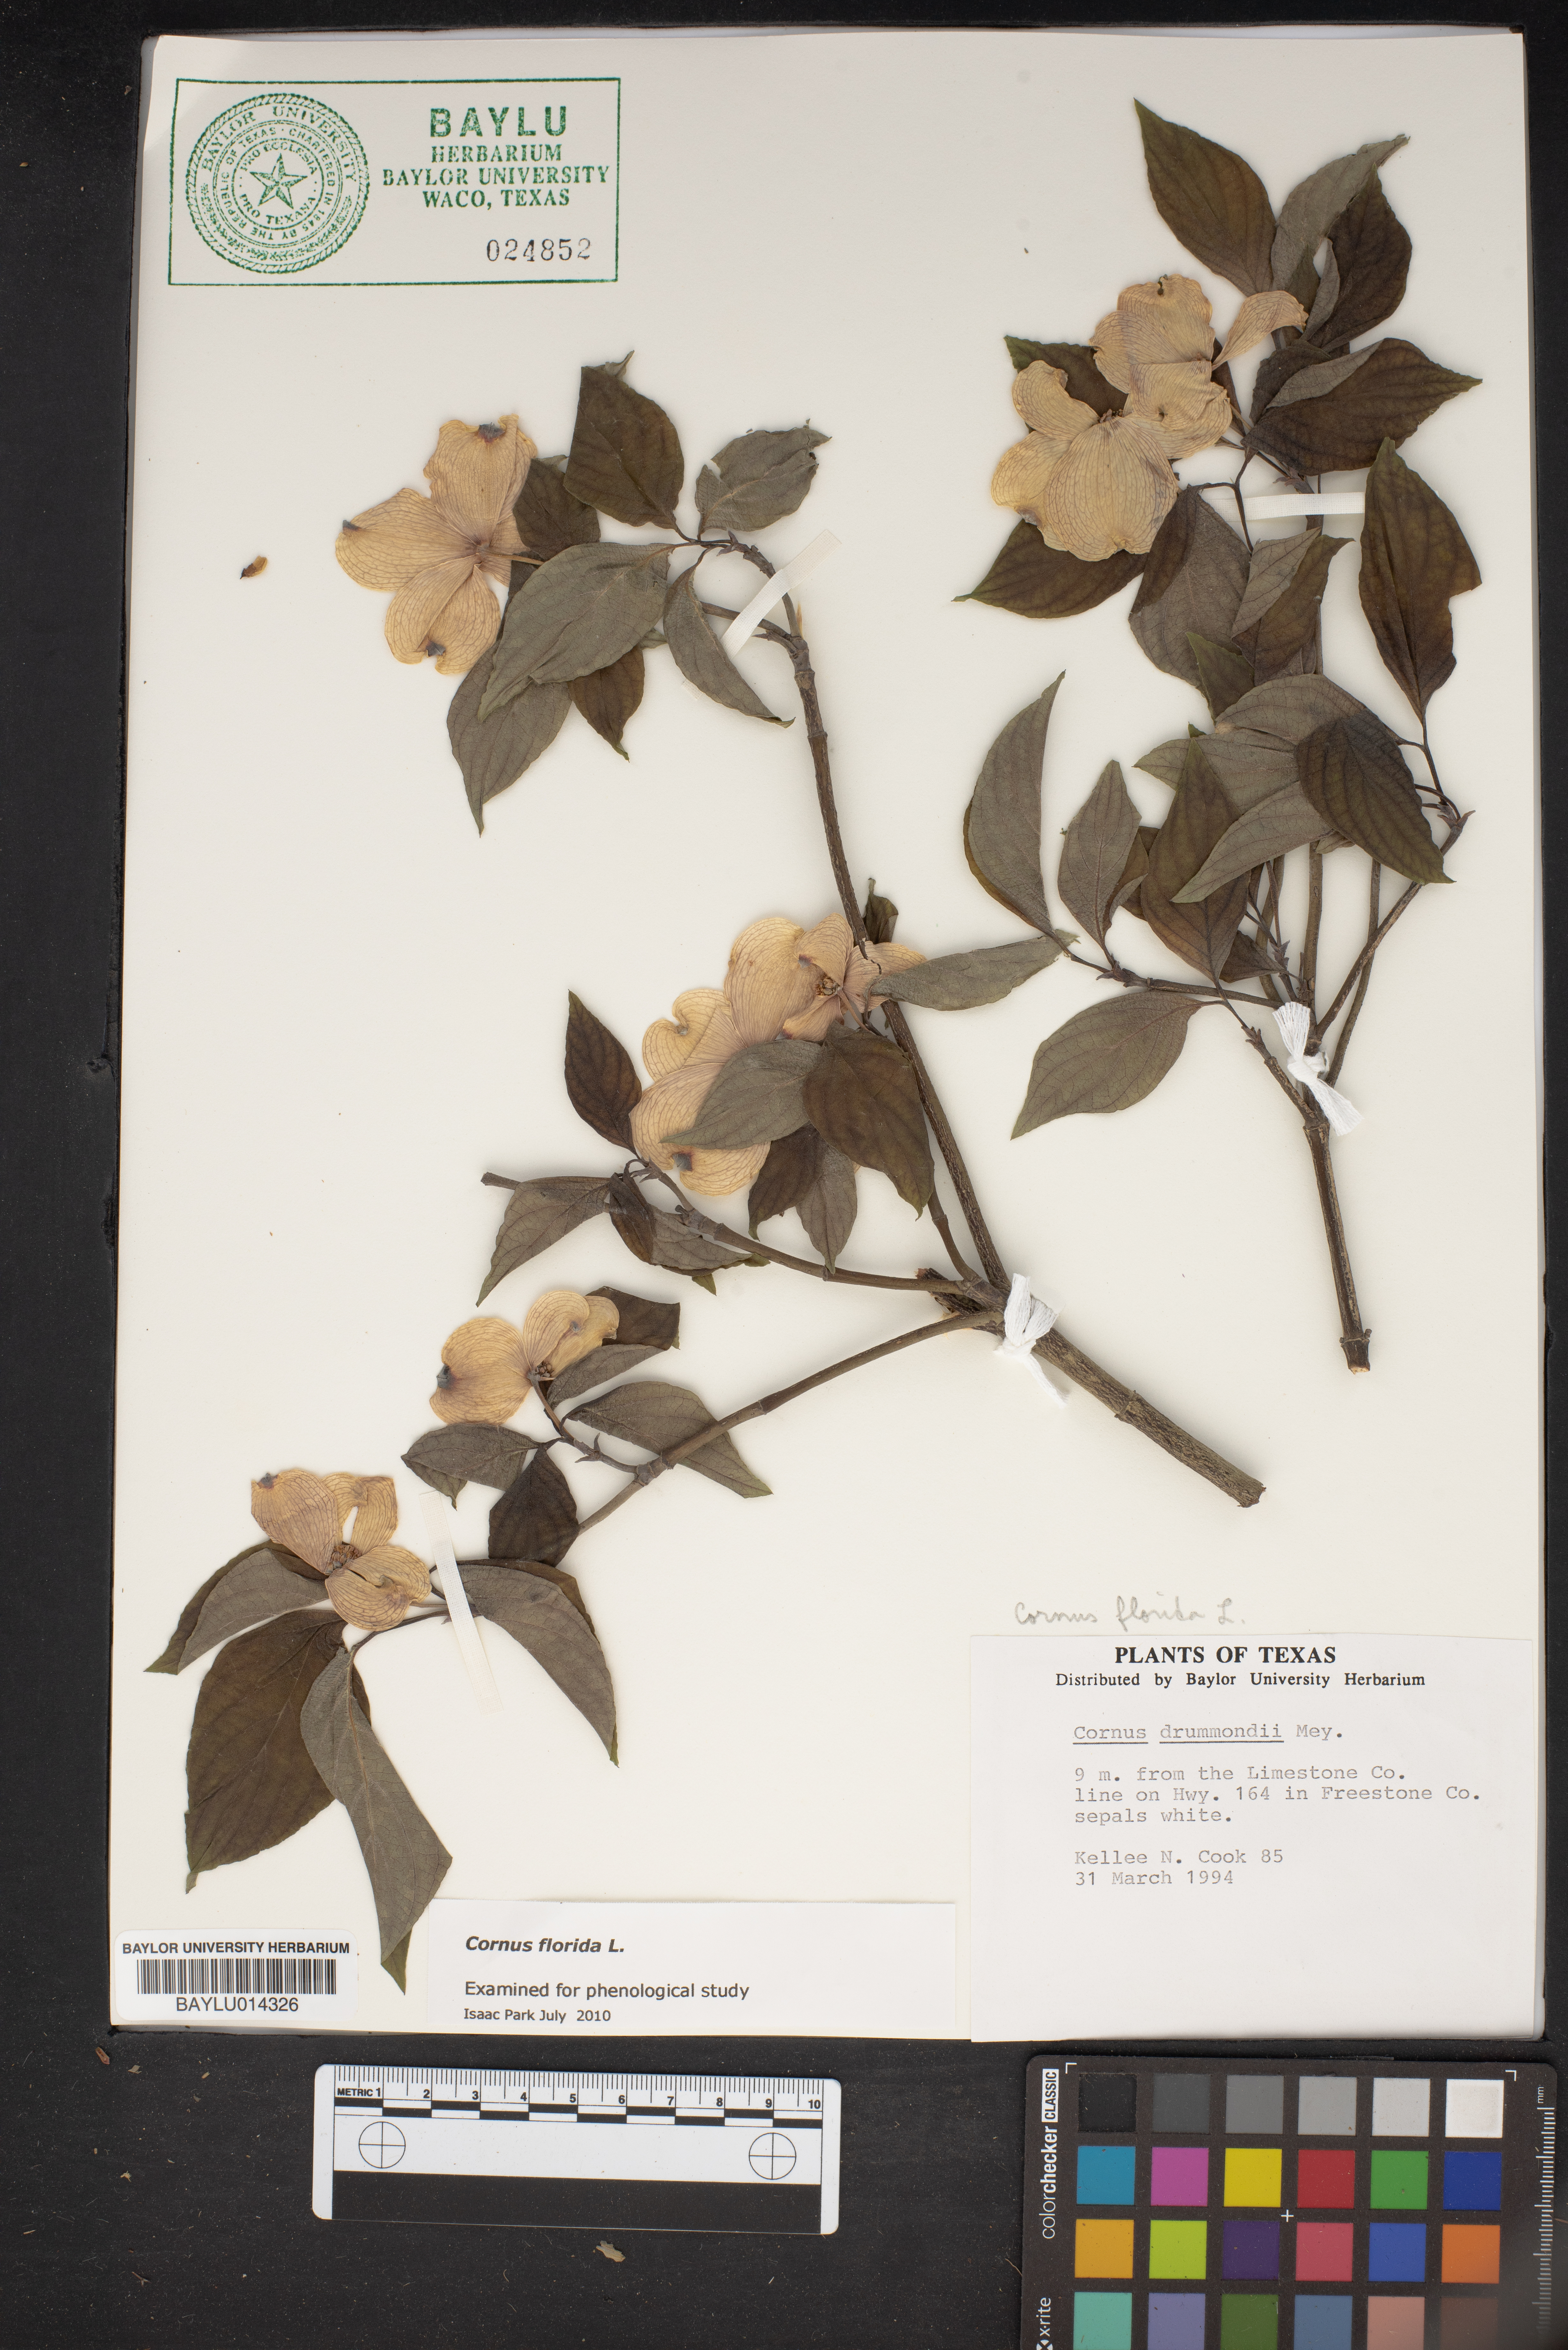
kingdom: Plantae
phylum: Tracheophyta
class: Magnoliopsida
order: Cornales
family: Cornaceae
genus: Cornus
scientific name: Cornus florida
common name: Flowering dogwood
